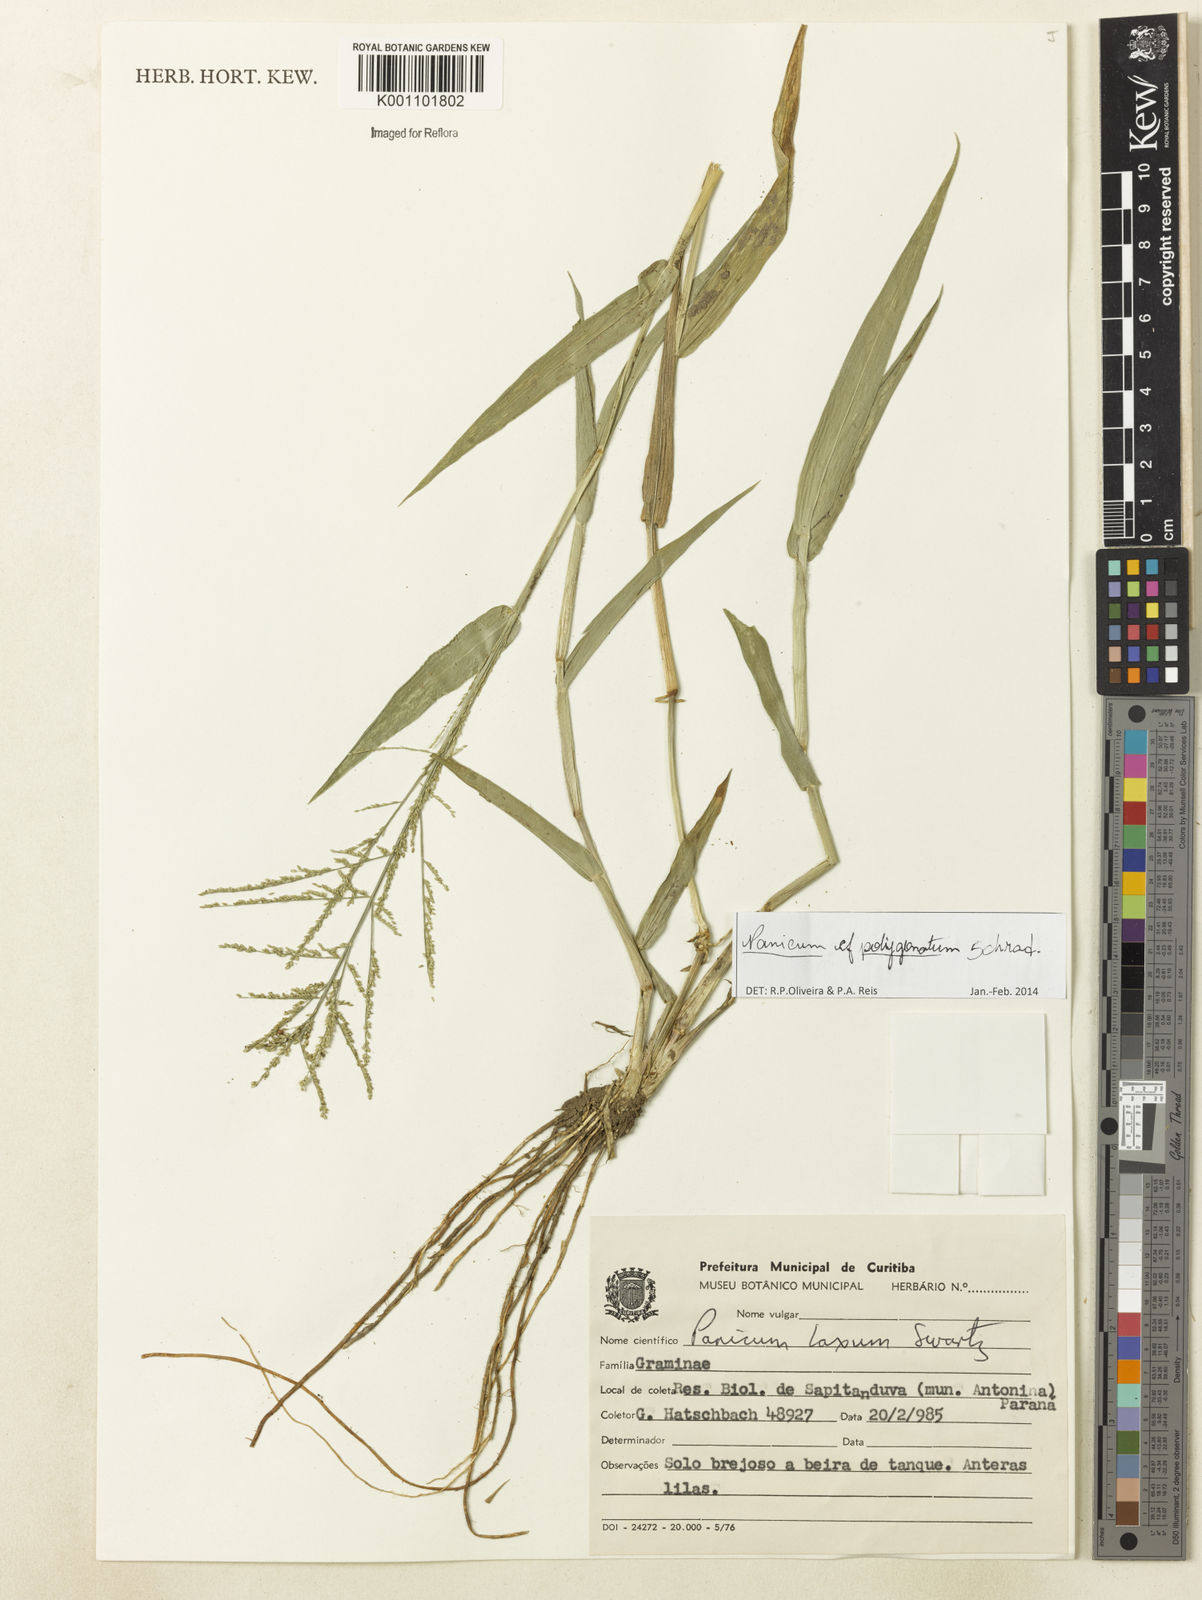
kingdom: Plantae
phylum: Tracheophyta
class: Liliopsida
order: Poales
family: Poaceae
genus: Rugoloa
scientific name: Rugoloa polygonata
